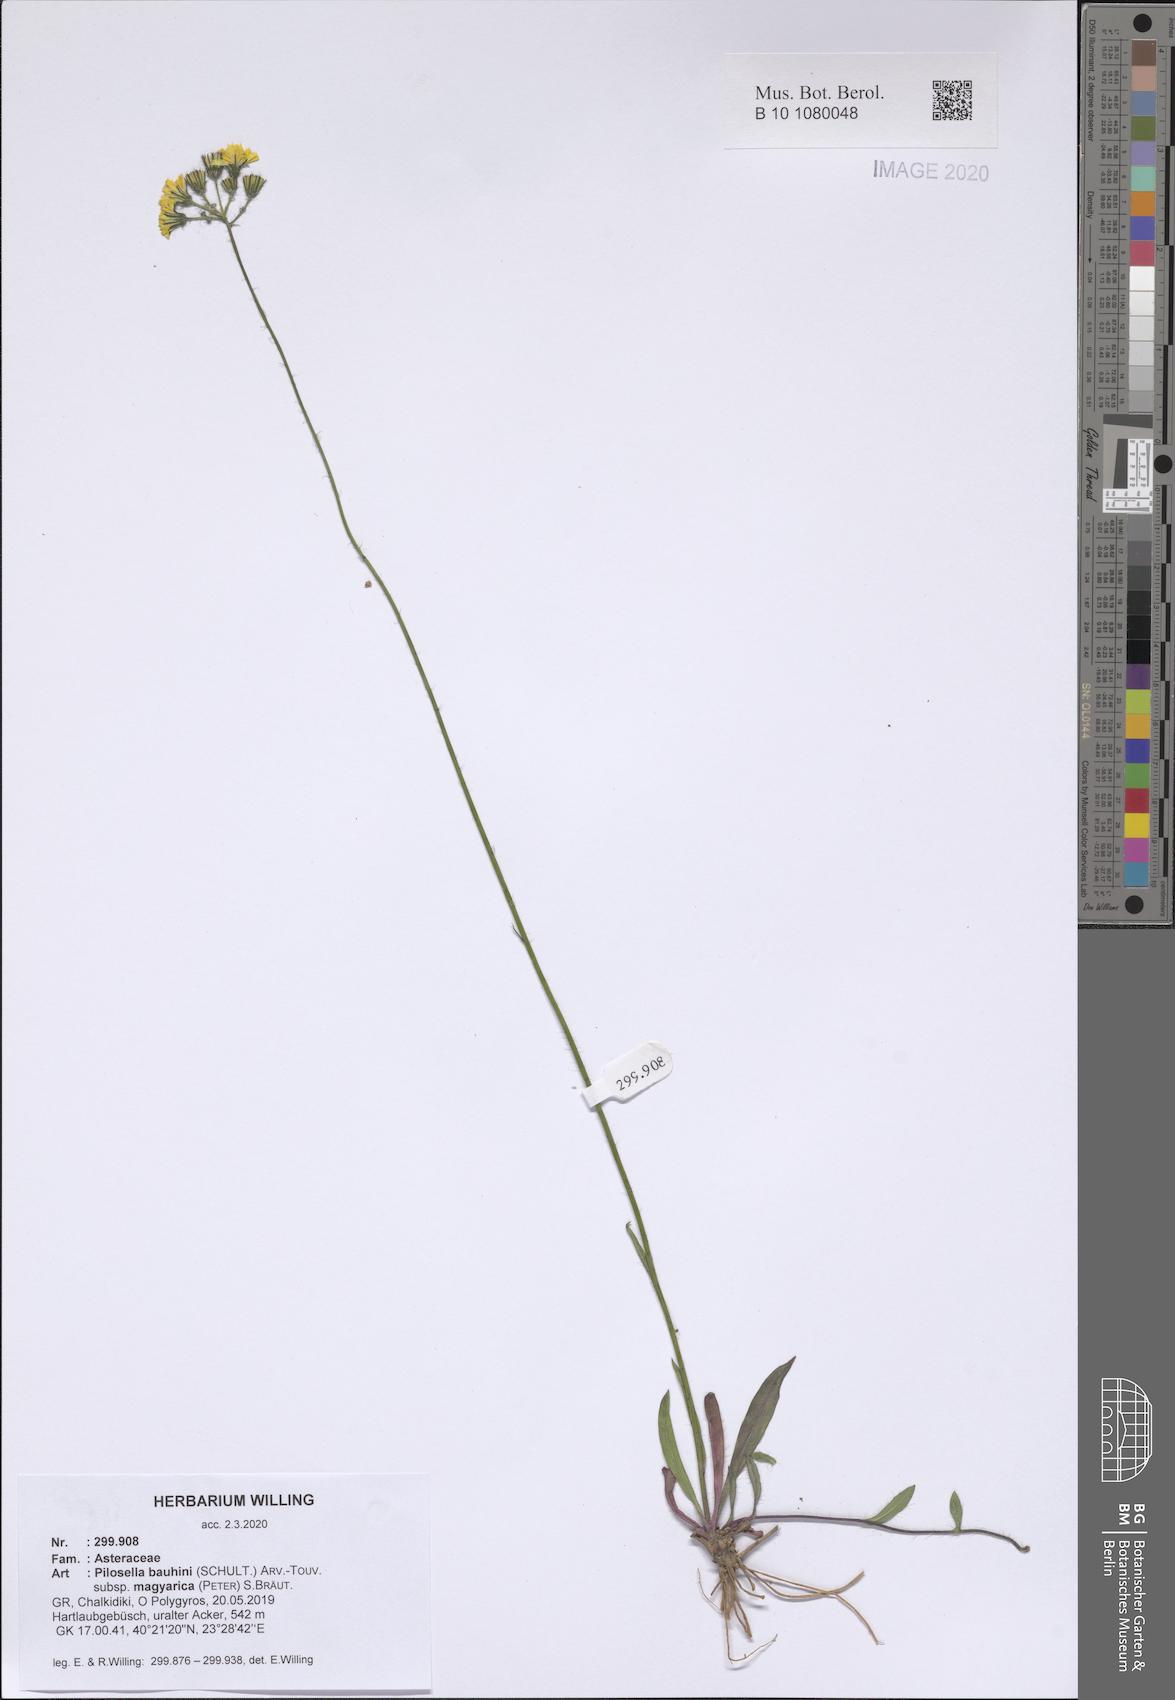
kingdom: Plantae
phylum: Tracheophyta
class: Magnoliopsida
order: Asterales
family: Asteraceae
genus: Pilosella
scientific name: Pilosella bauhini
